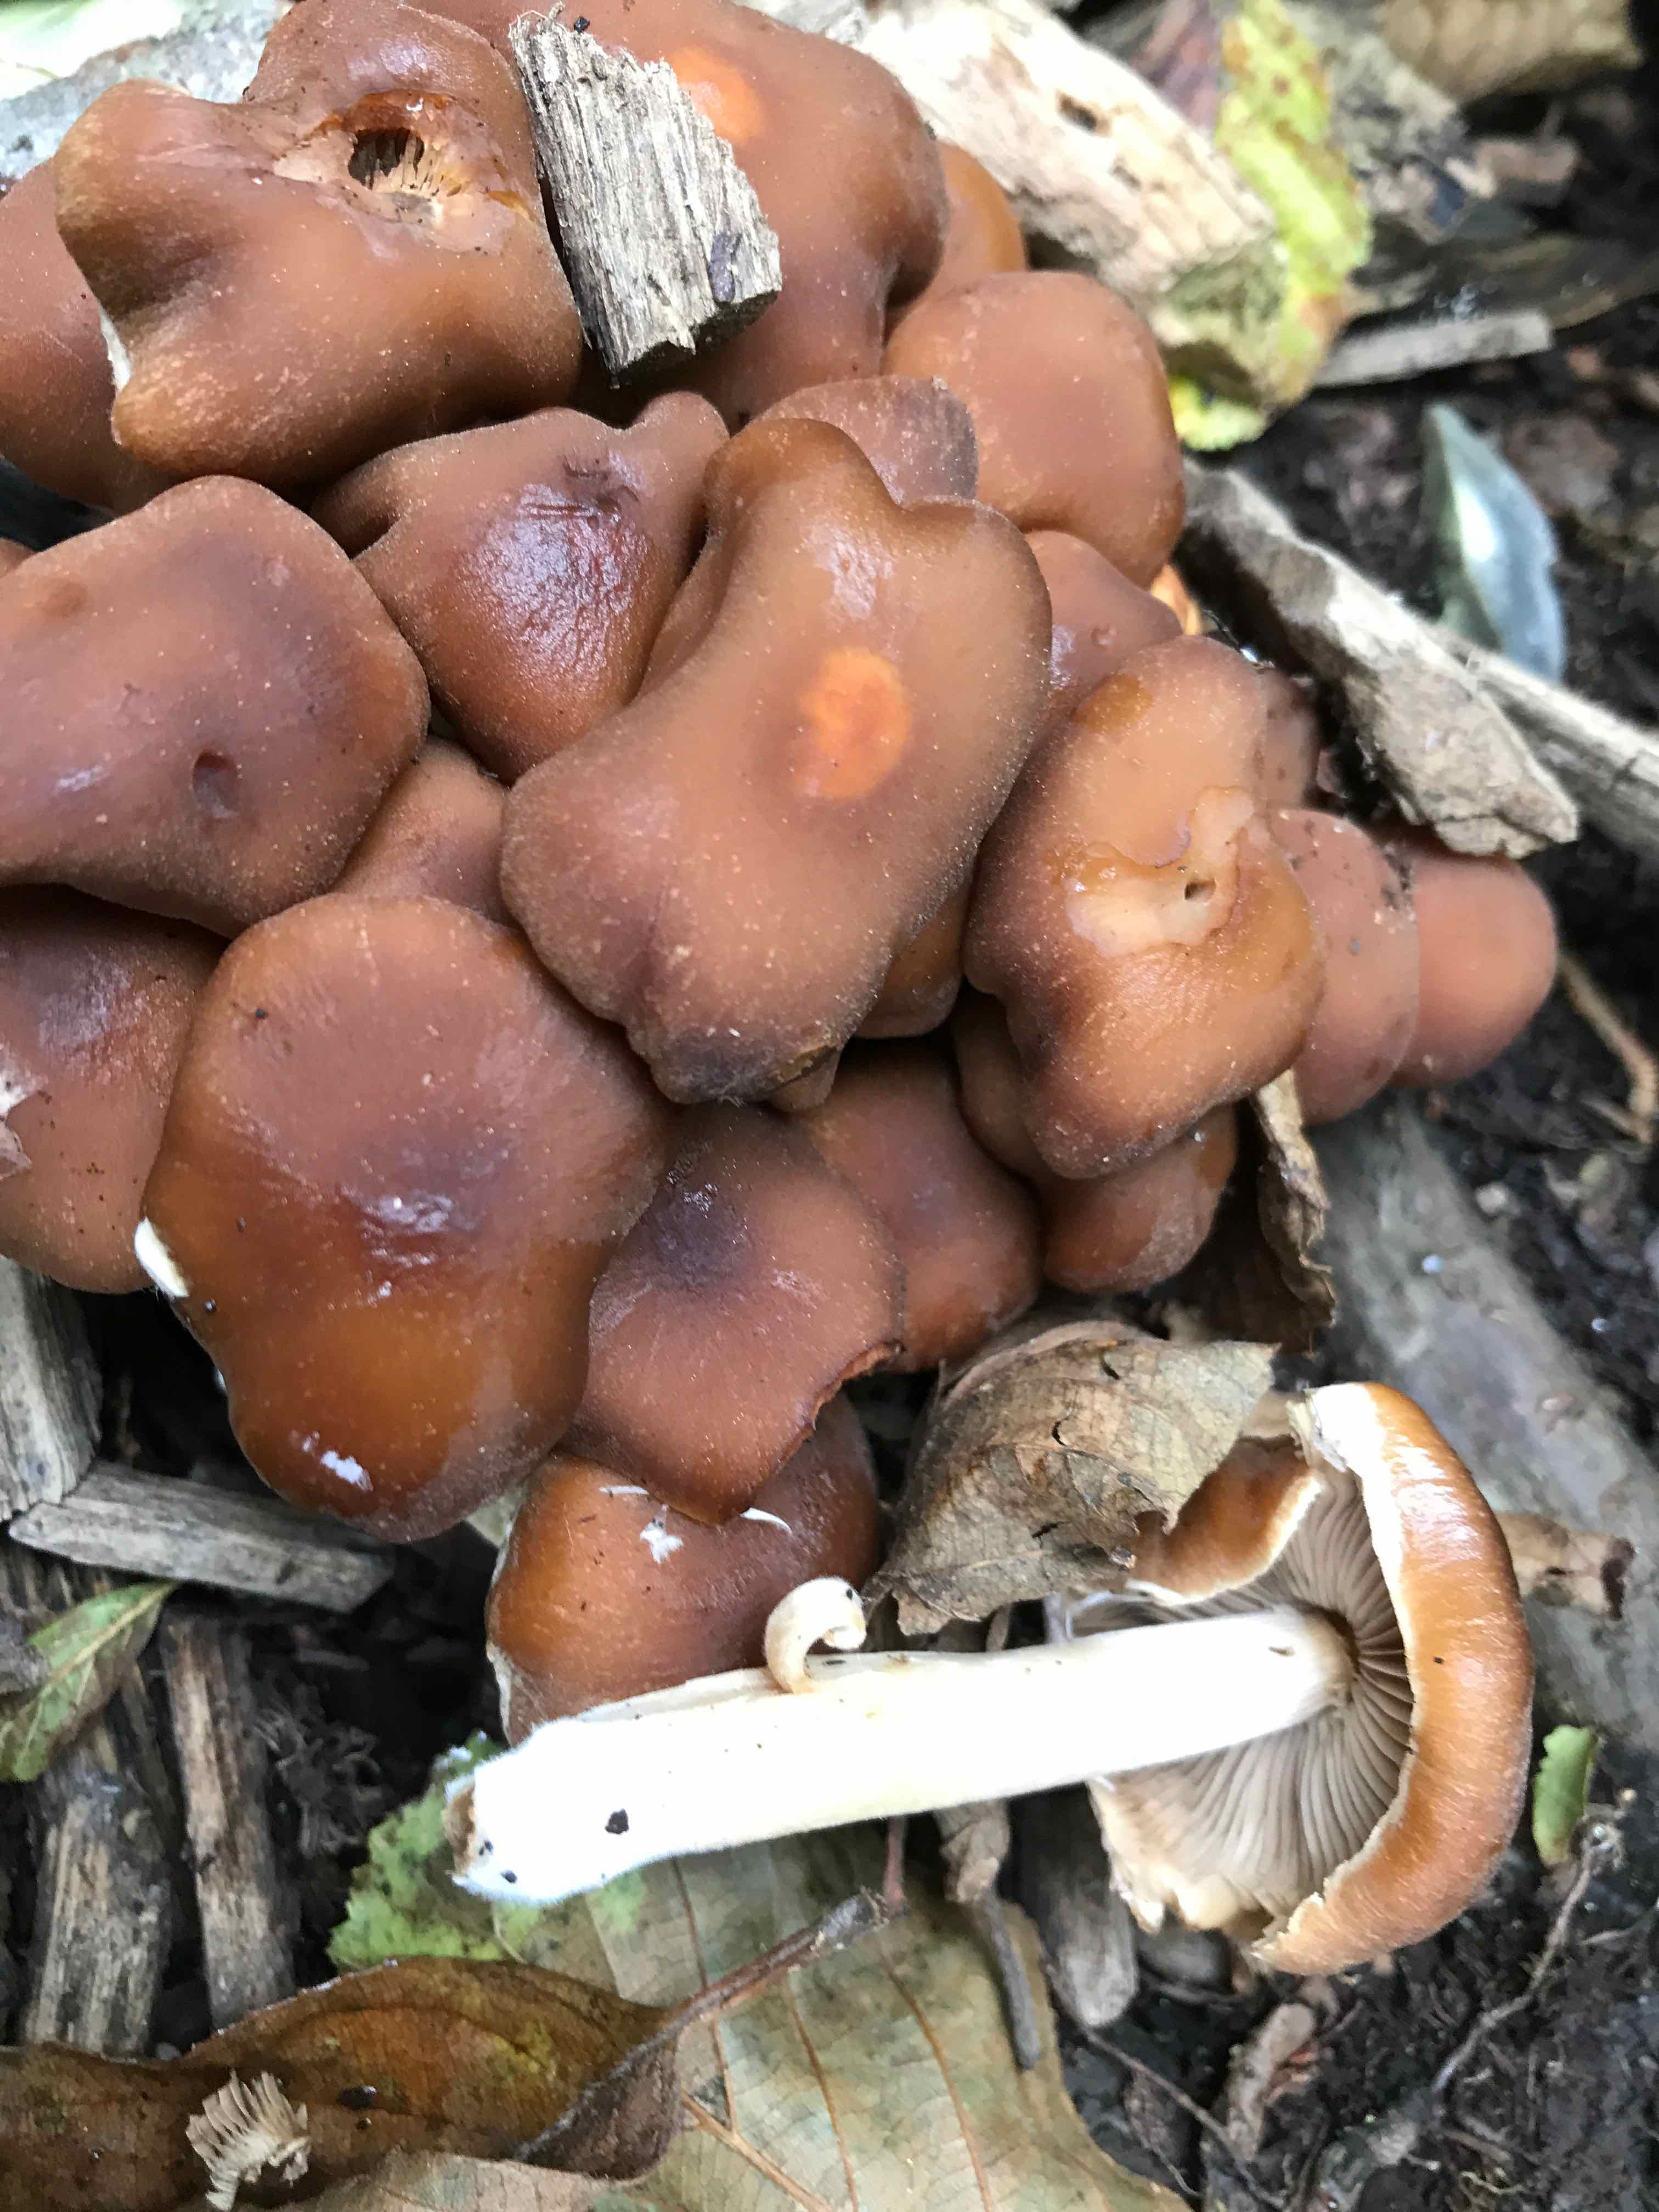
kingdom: Fungi
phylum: Basidiomycota
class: Agaricomycetes
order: Agaricales
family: Psathyrellaceae
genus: Psathyrella
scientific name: Psathyrella piluliformis
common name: lysstokket mørkhat
